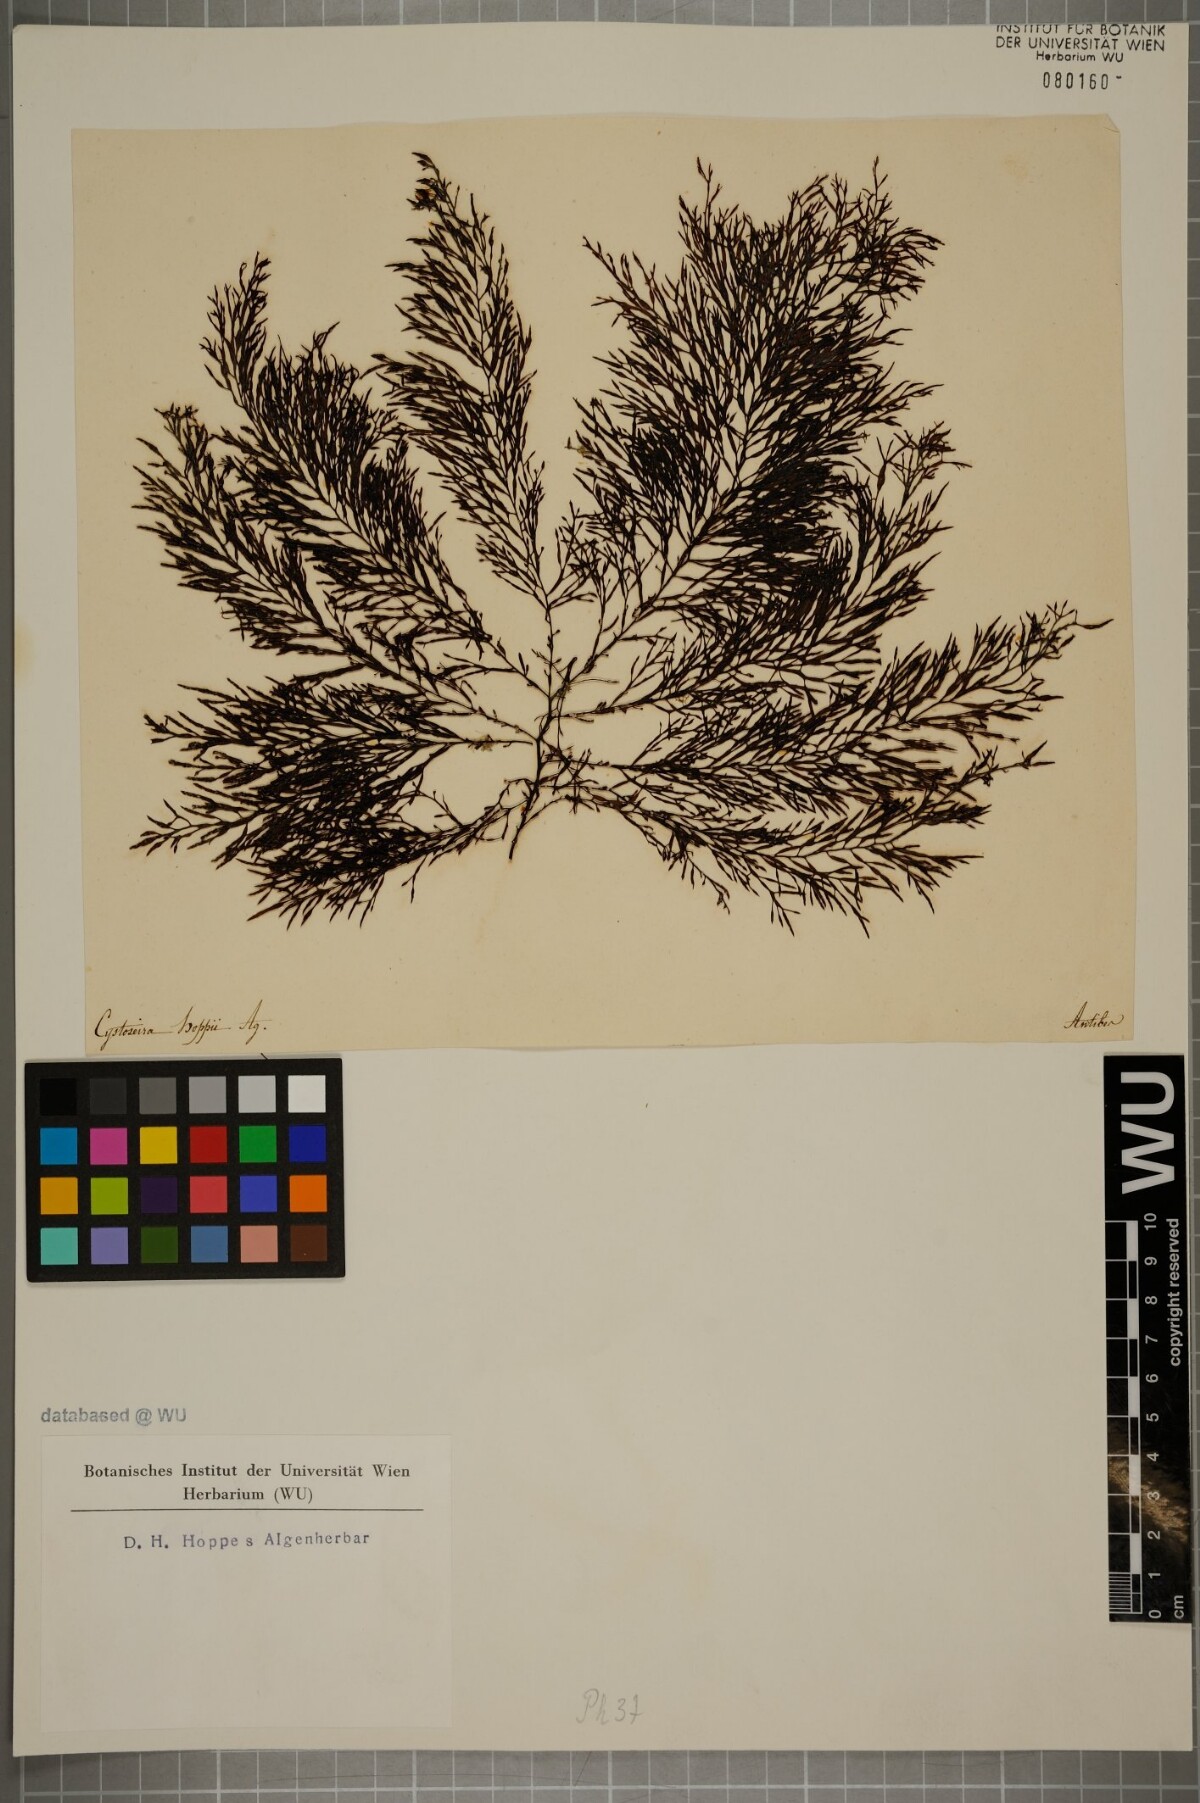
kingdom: Chromista
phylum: Ochrophyta
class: Phaeophyceae
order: Fucales
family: Sargassaceae
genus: Cystoseira
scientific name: Cystoseira Gongolaria barbata
